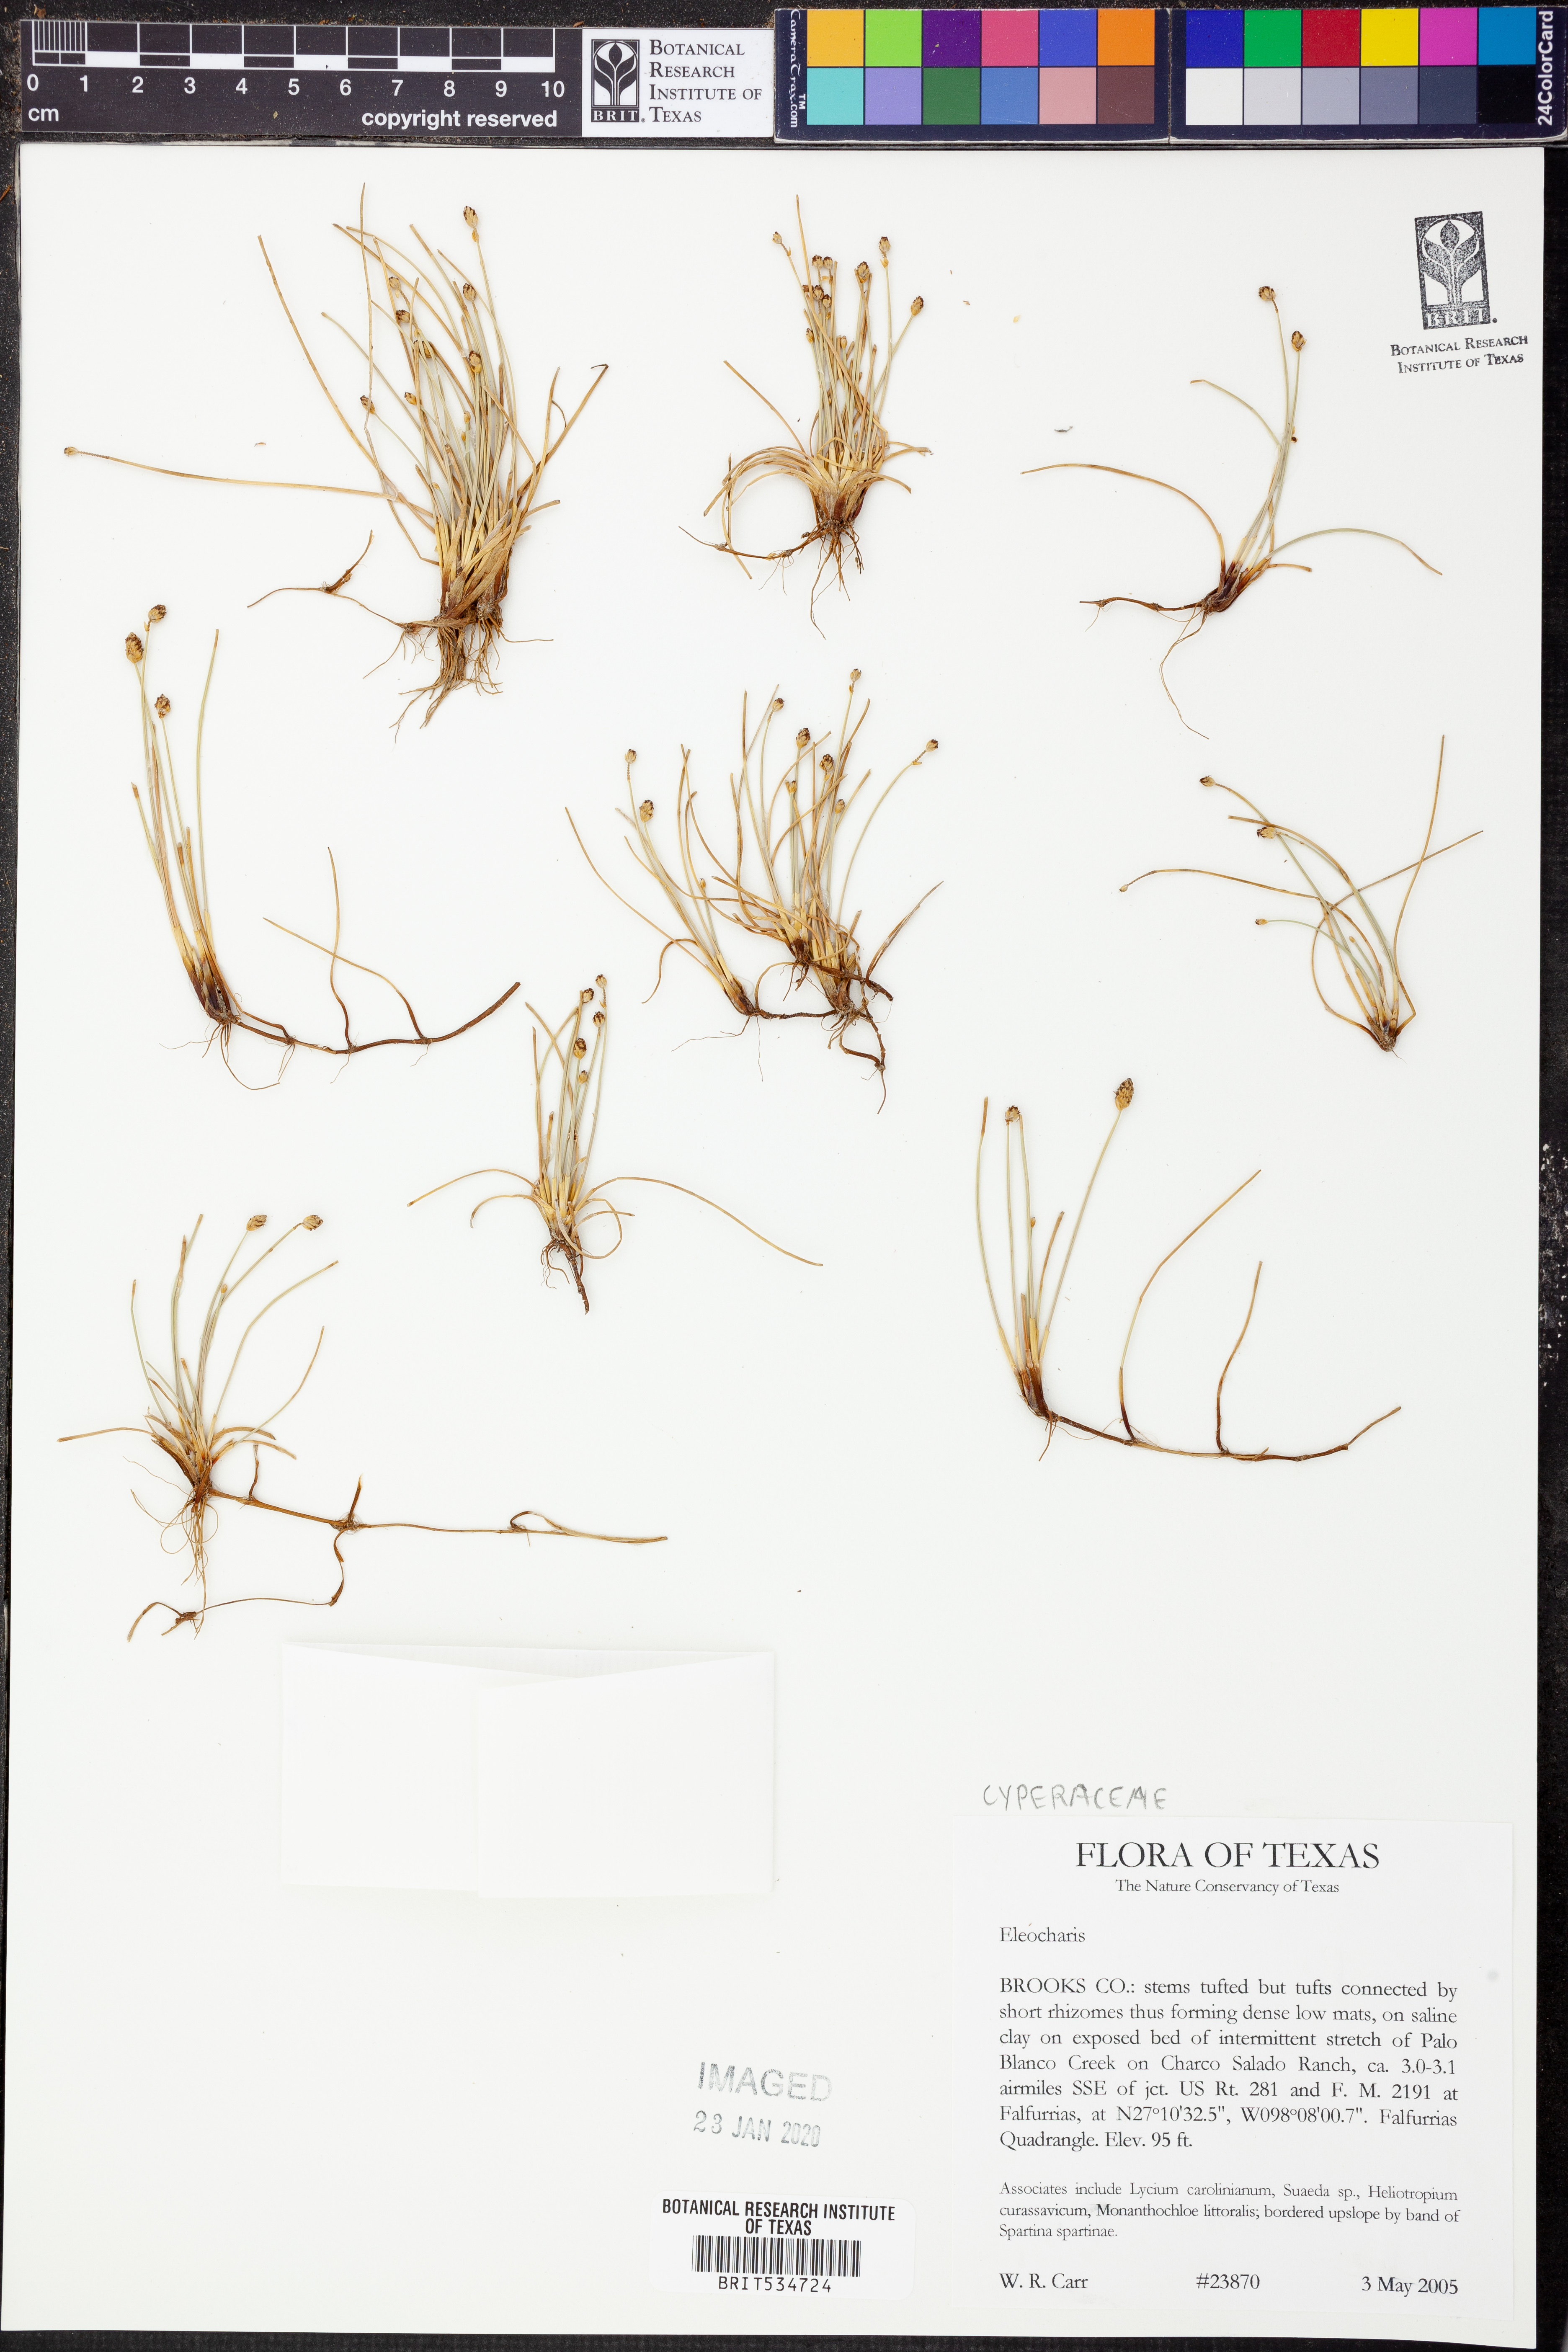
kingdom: Plantae
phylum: Tracheophyta
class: Liliopsida
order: Poales
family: Cyperaceae
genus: Eleocharis
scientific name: Eleocharis
